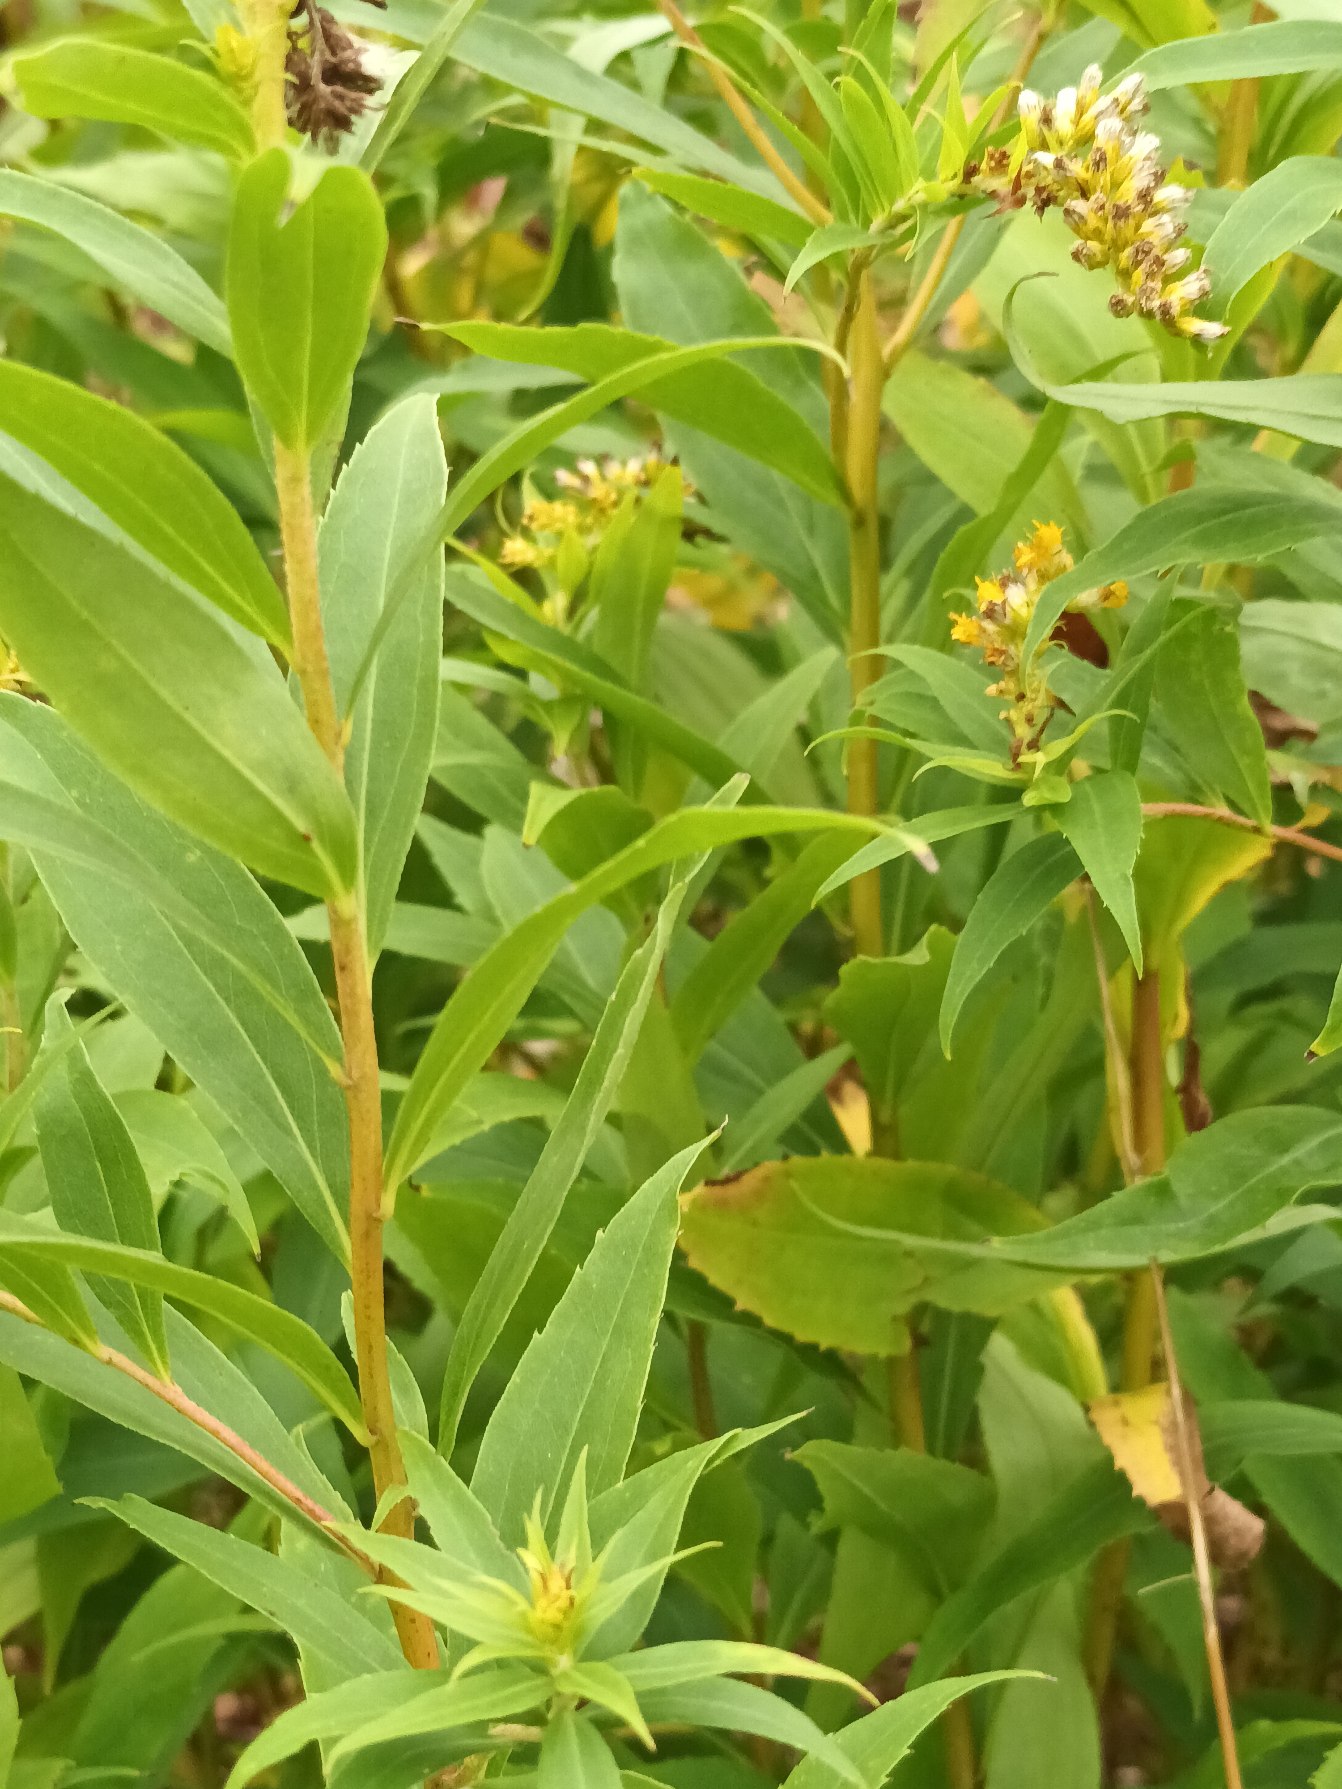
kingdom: Plantae
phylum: Tracheophyta
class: Magnoliopsida
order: Asterales
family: Asteraceae
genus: Solidago
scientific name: Solidago gigantea
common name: Sildig gyldenris
